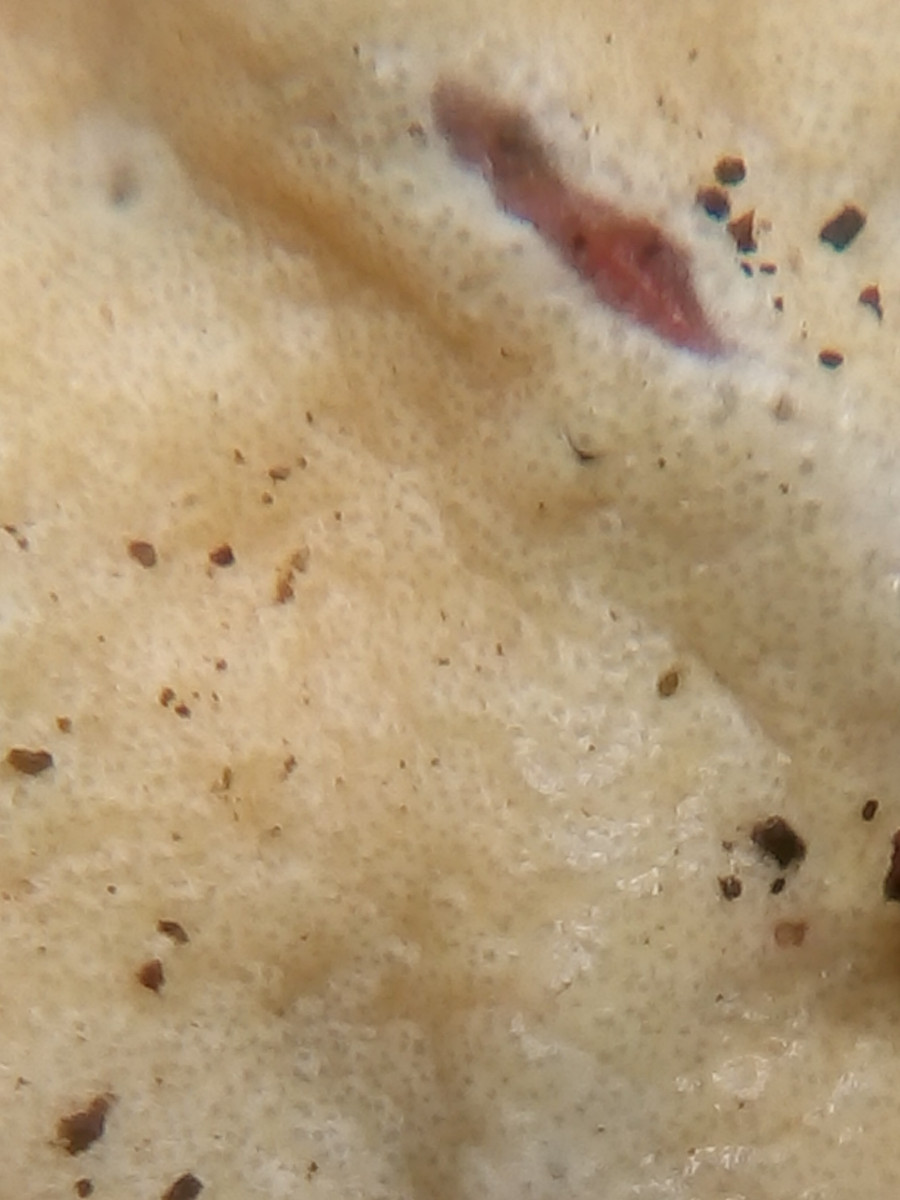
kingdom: Fungi
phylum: Ascomycota
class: Sordariomycetes
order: Hypocreales
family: Hypocreaceae
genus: Trichoderma
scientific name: Trichoderma citrinum
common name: udbredt kødkerne
